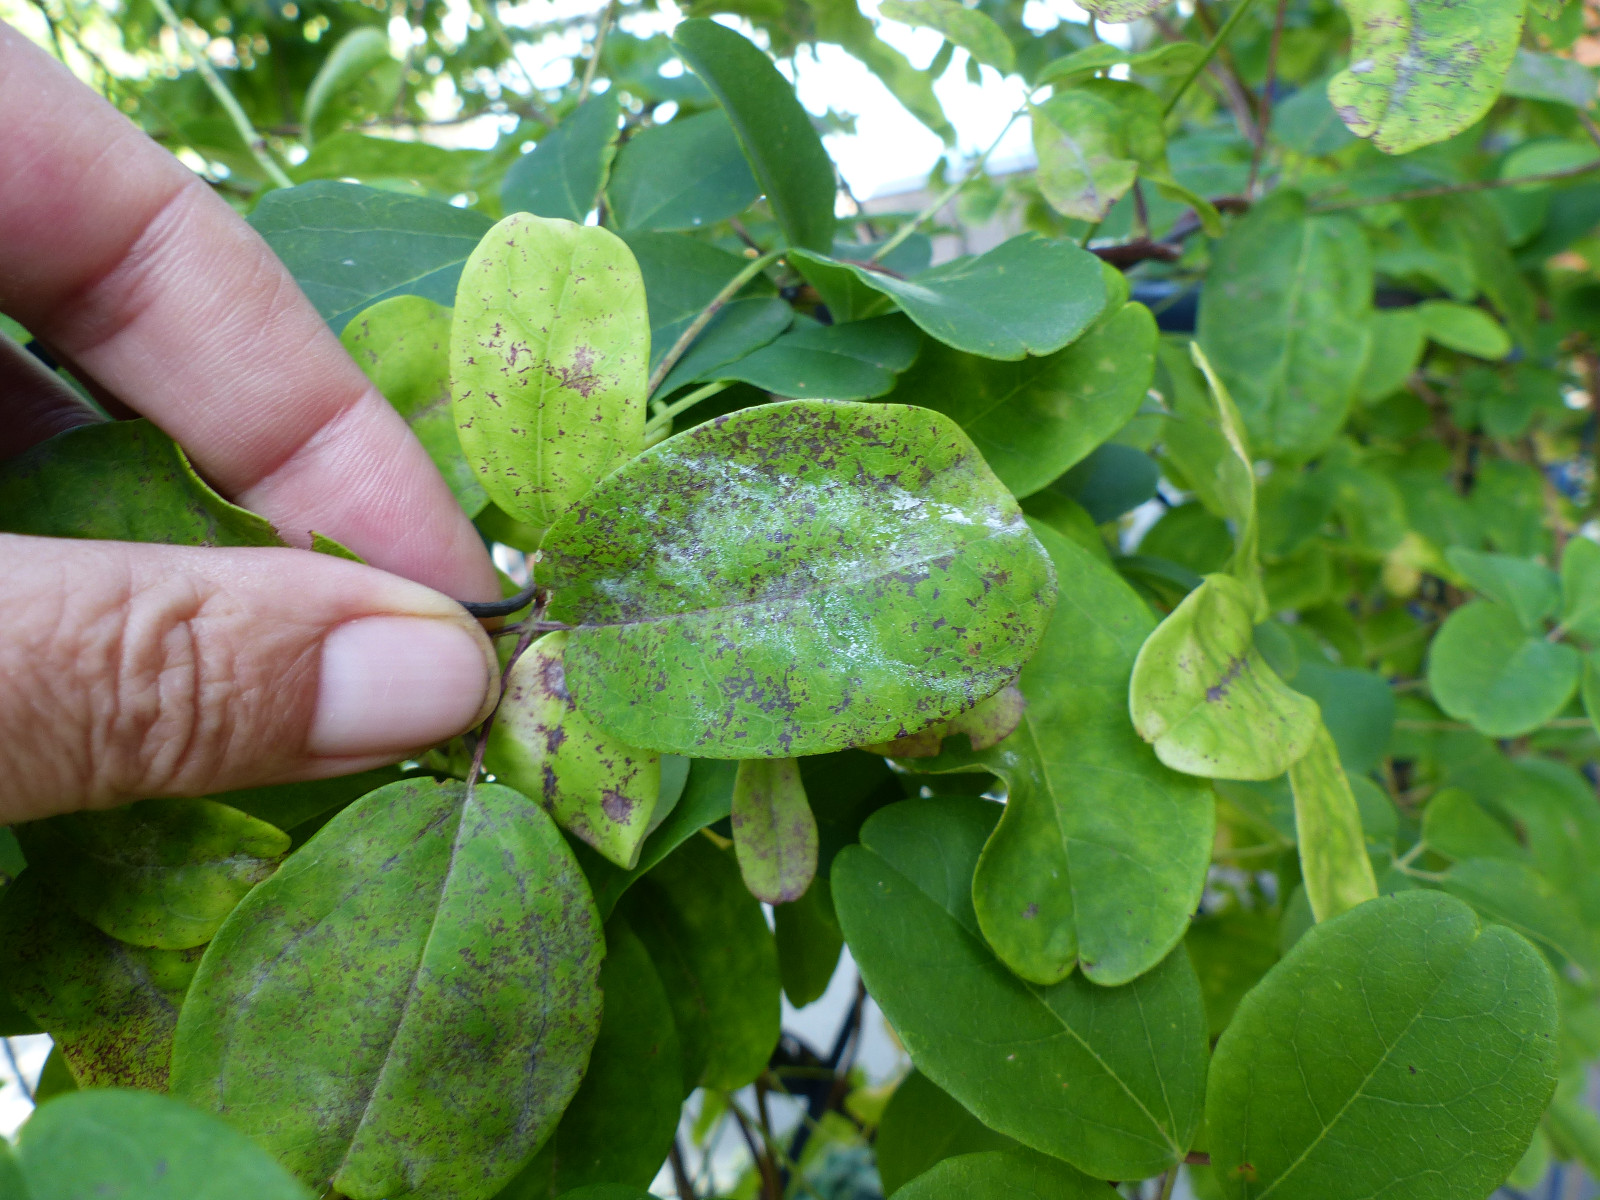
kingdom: Fungi
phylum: Ascomycota
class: Leotiomycetes
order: Helotiales
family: Erysiphaceae
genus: Erysiphe
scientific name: Erysiphe akebiae
